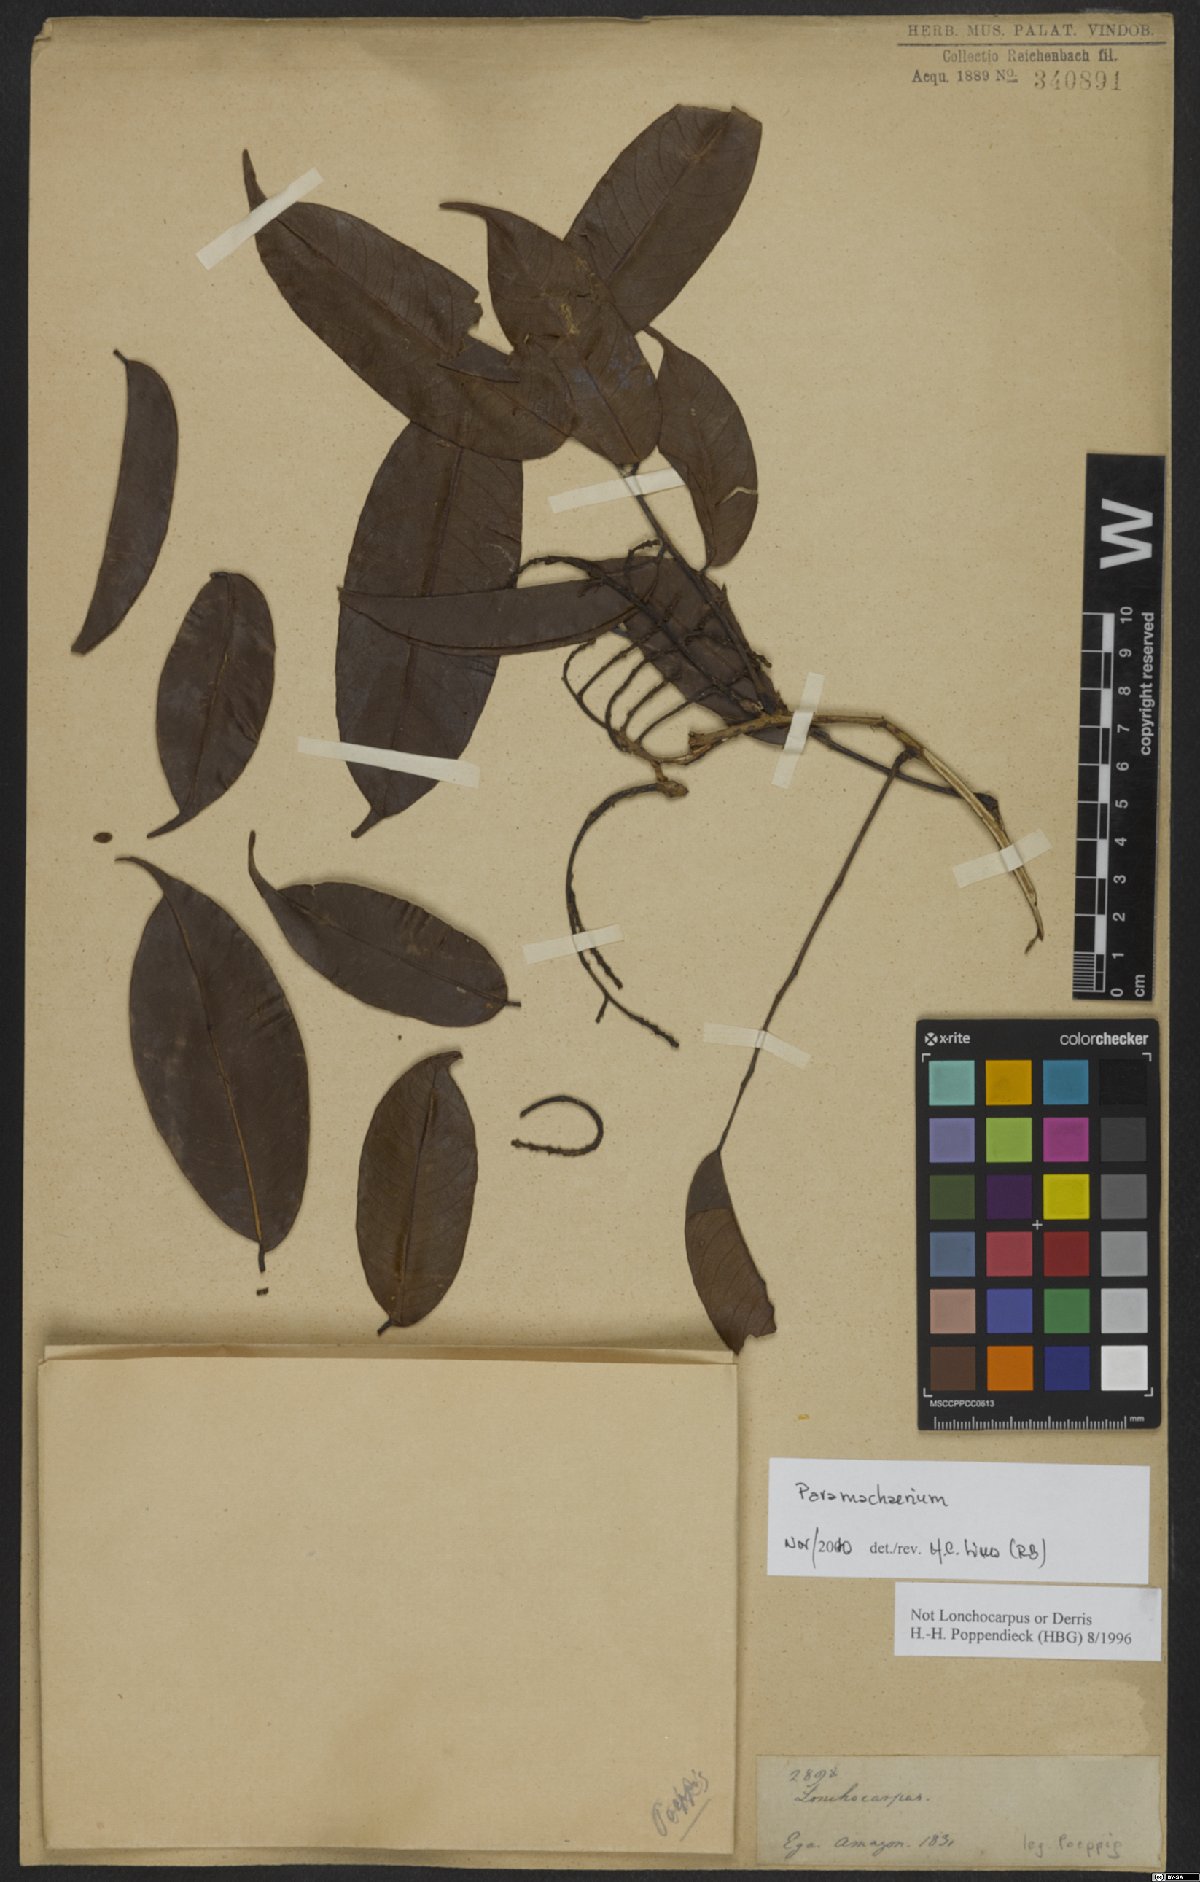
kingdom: Plantae
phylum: Tracheophyta
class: Magnoliopsida
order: Fabales
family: Fabaceae
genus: Paramachaerium
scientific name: Paramachaerium ormosioides
